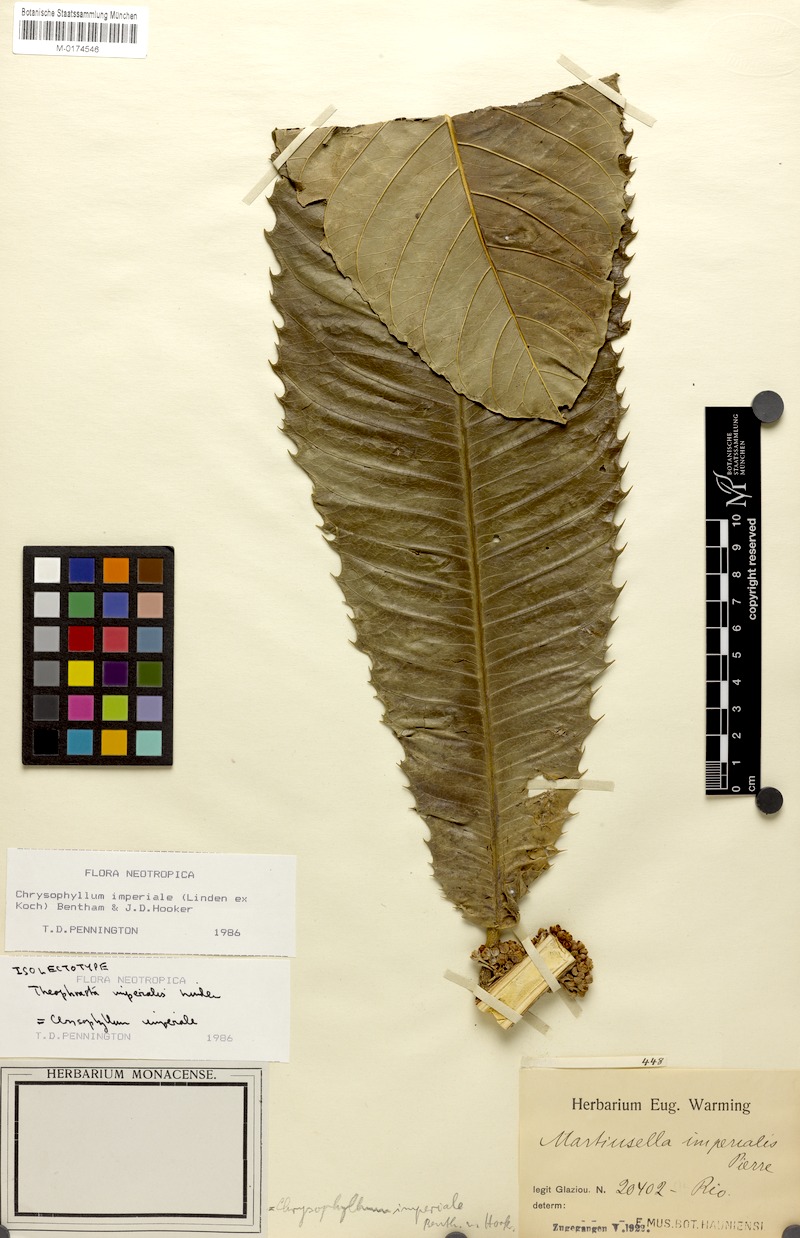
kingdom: Plantae
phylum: Tracheophyta
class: Magnoliopsida
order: Ericales
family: Sapotaceae
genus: Chrysophyllum
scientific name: Chrysophyllum imperiale
